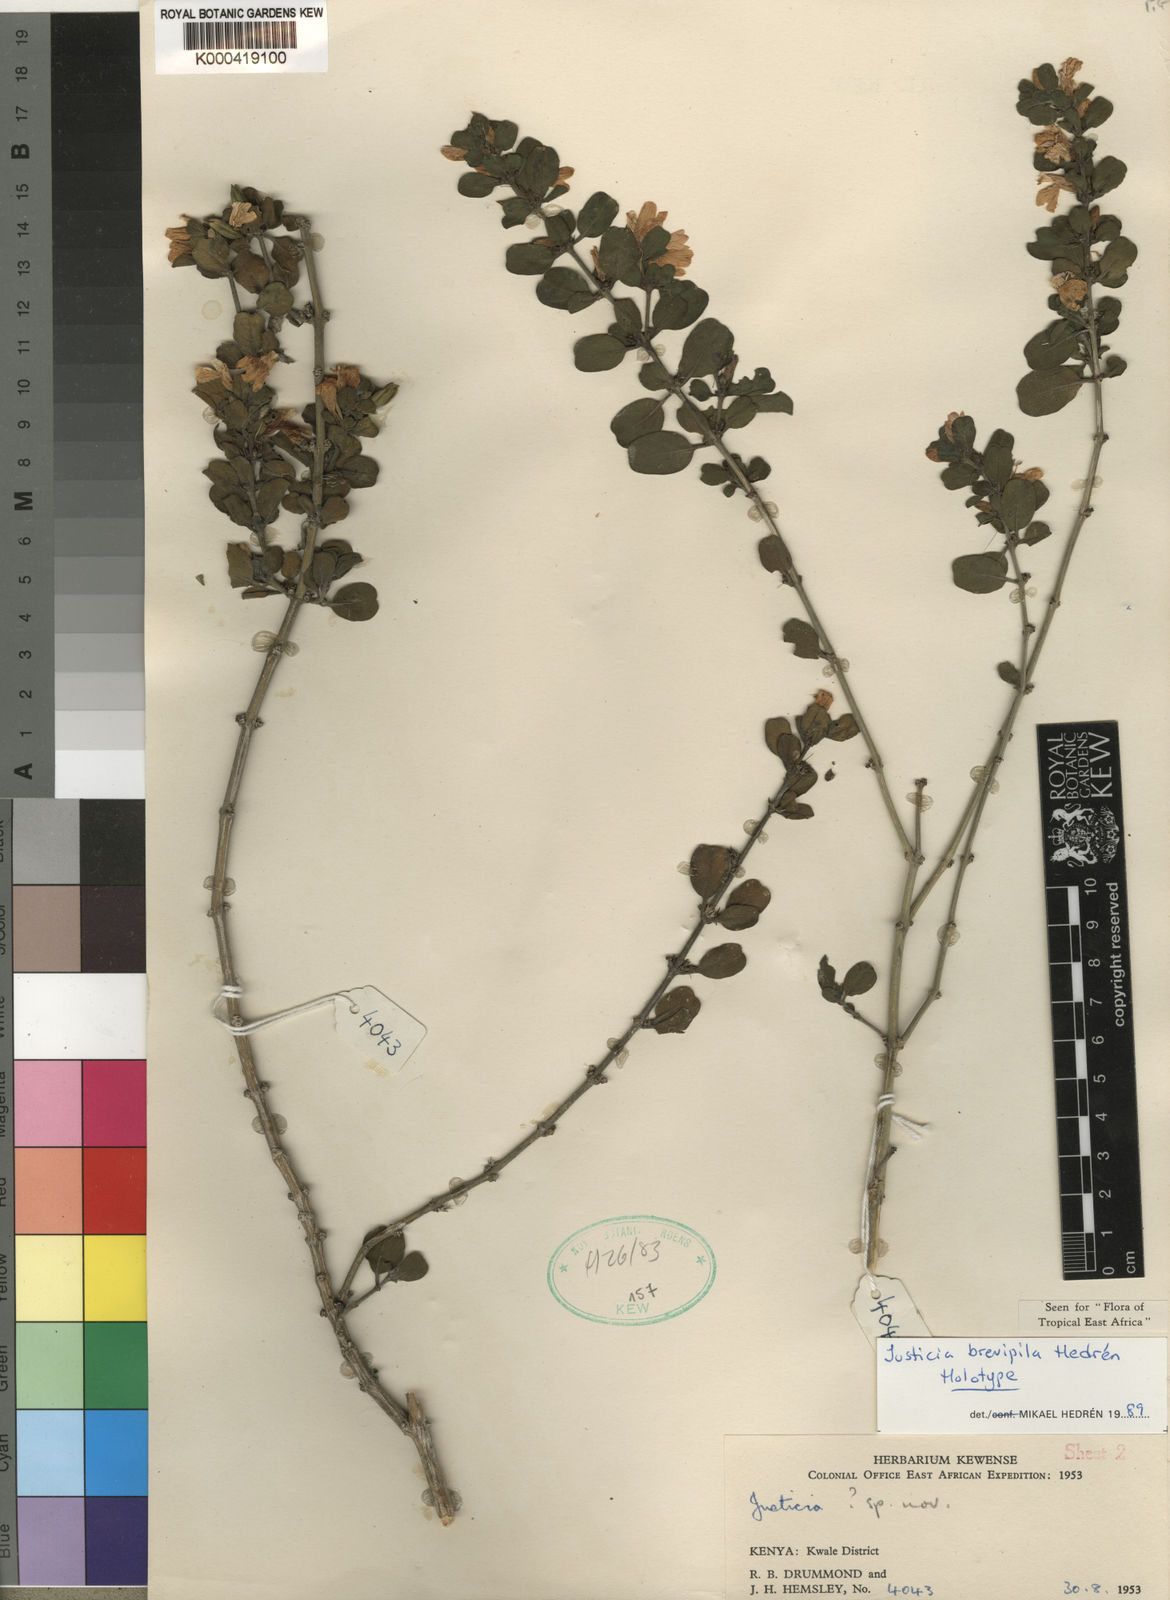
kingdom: Plantae
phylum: Tracheophyta
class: Magnoliopsida
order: Lamiales
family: Acanthaceae
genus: Justicia
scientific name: Justicia
